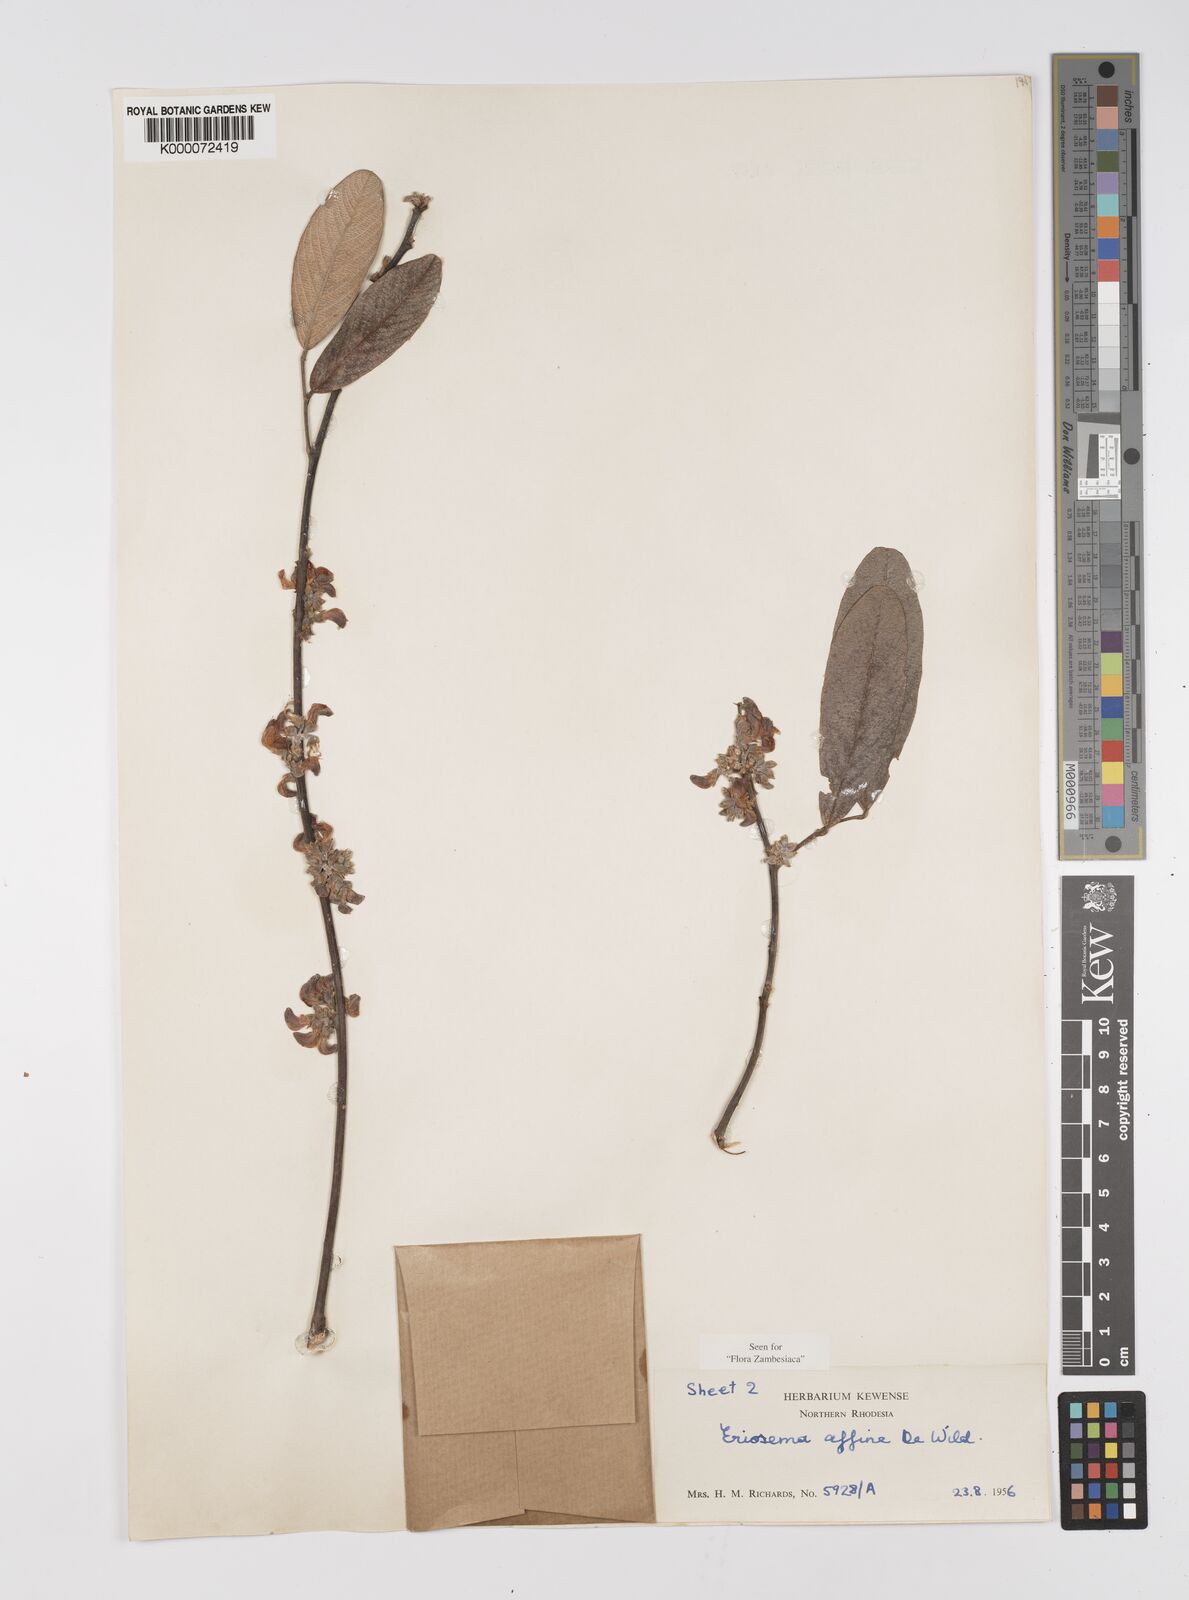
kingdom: Plantae
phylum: Tracheophyta
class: Magnoliopsida
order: Fabales
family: Fabaceae
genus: Eriosema
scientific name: Eriosema affine
